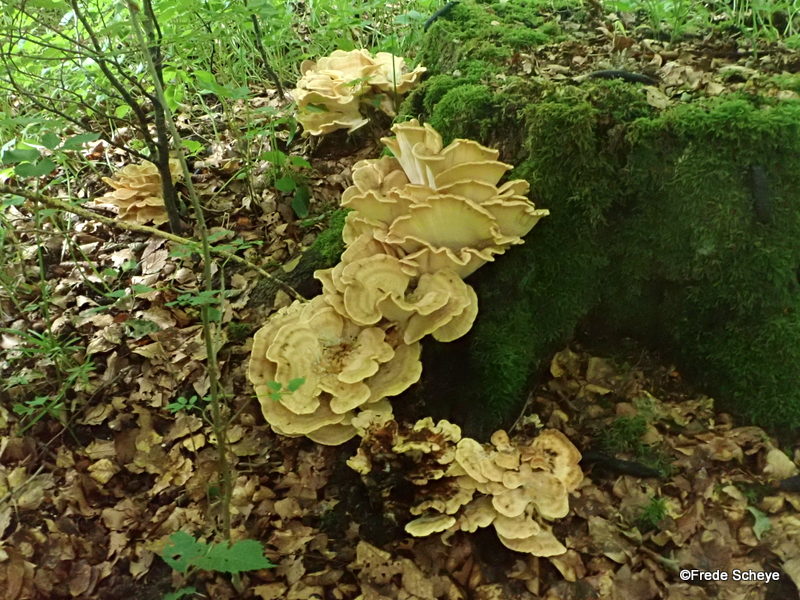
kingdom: Fungi
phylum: Basidiomycota
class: Agaricomycetes
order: Polyporales
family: Meripilaceae
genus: Meripilus
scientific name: Meripilus giganteus
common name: kæmpeporesvamp
